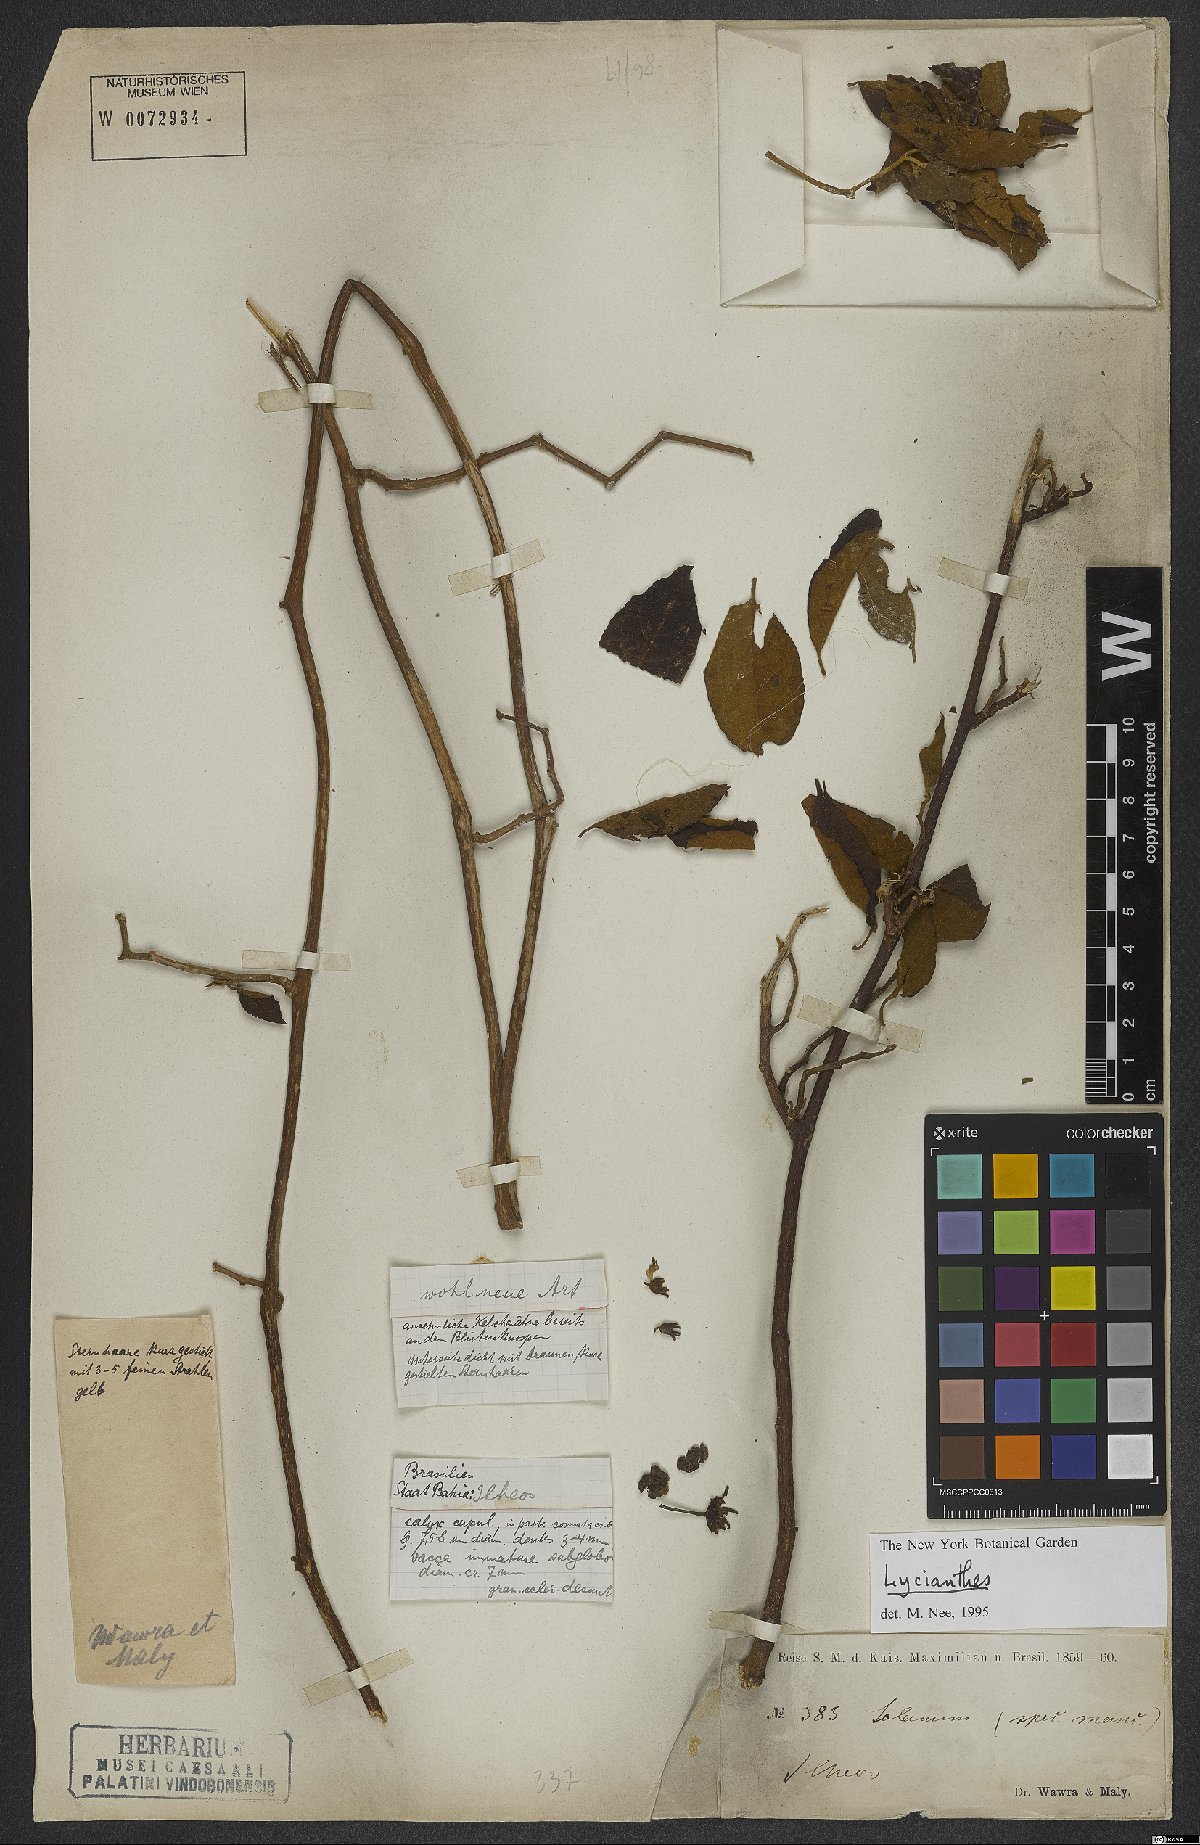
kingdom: Plantae
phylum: Tracheophyta
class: Magnoliopsida
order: Solanales
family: Solanaceae
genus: Lycianthes
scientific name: Lycianthes pauciflora
